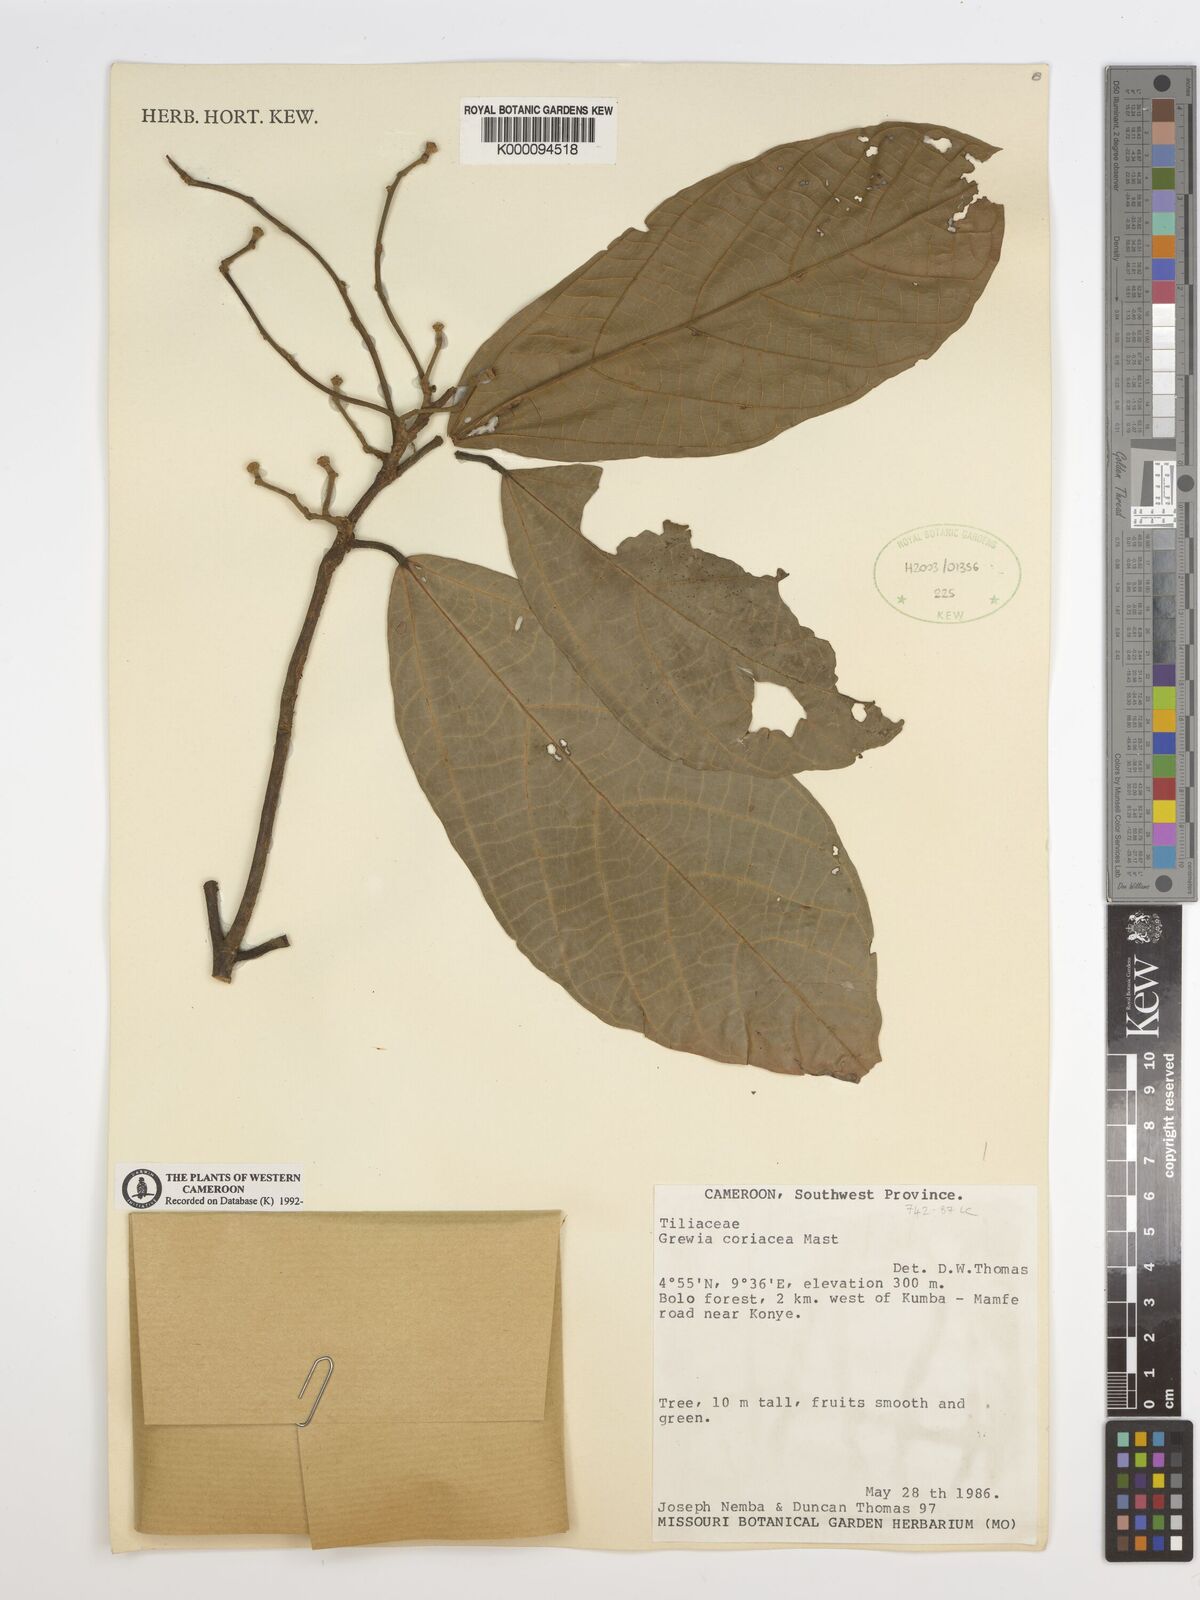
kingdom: Plantae
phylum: Tracheophyta
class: Magnoliopsida
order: Malvales
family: Malvaceae
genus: Microcos
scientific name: Microcos coriacea
